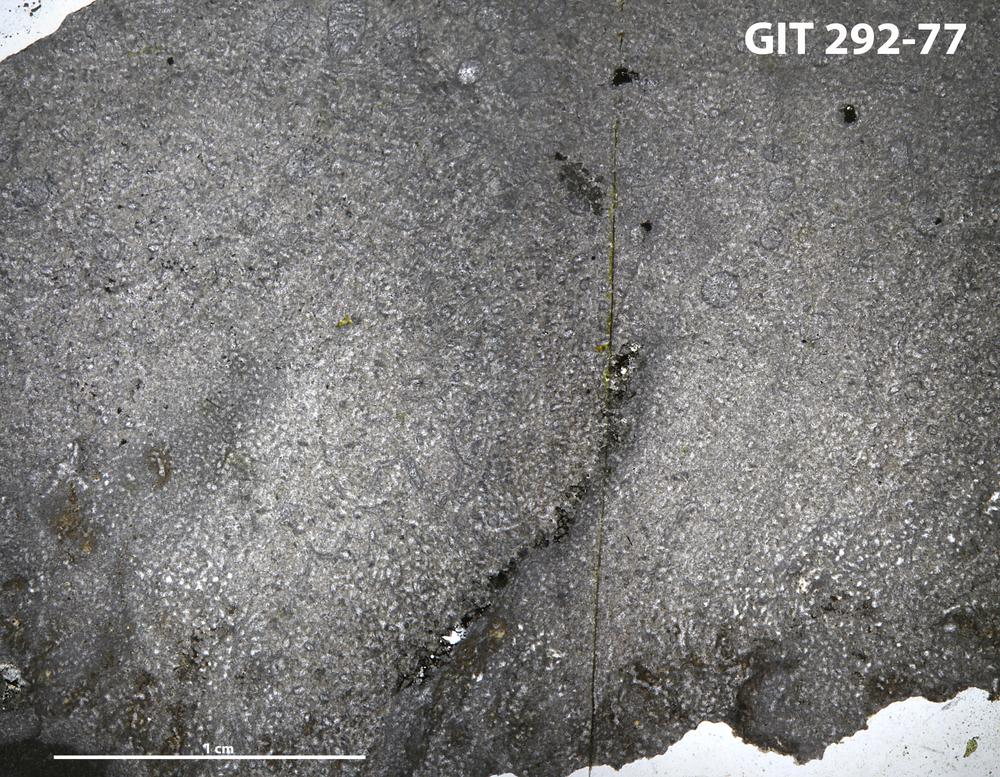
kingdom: Animalia
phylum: Porifera
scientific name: Porifera
